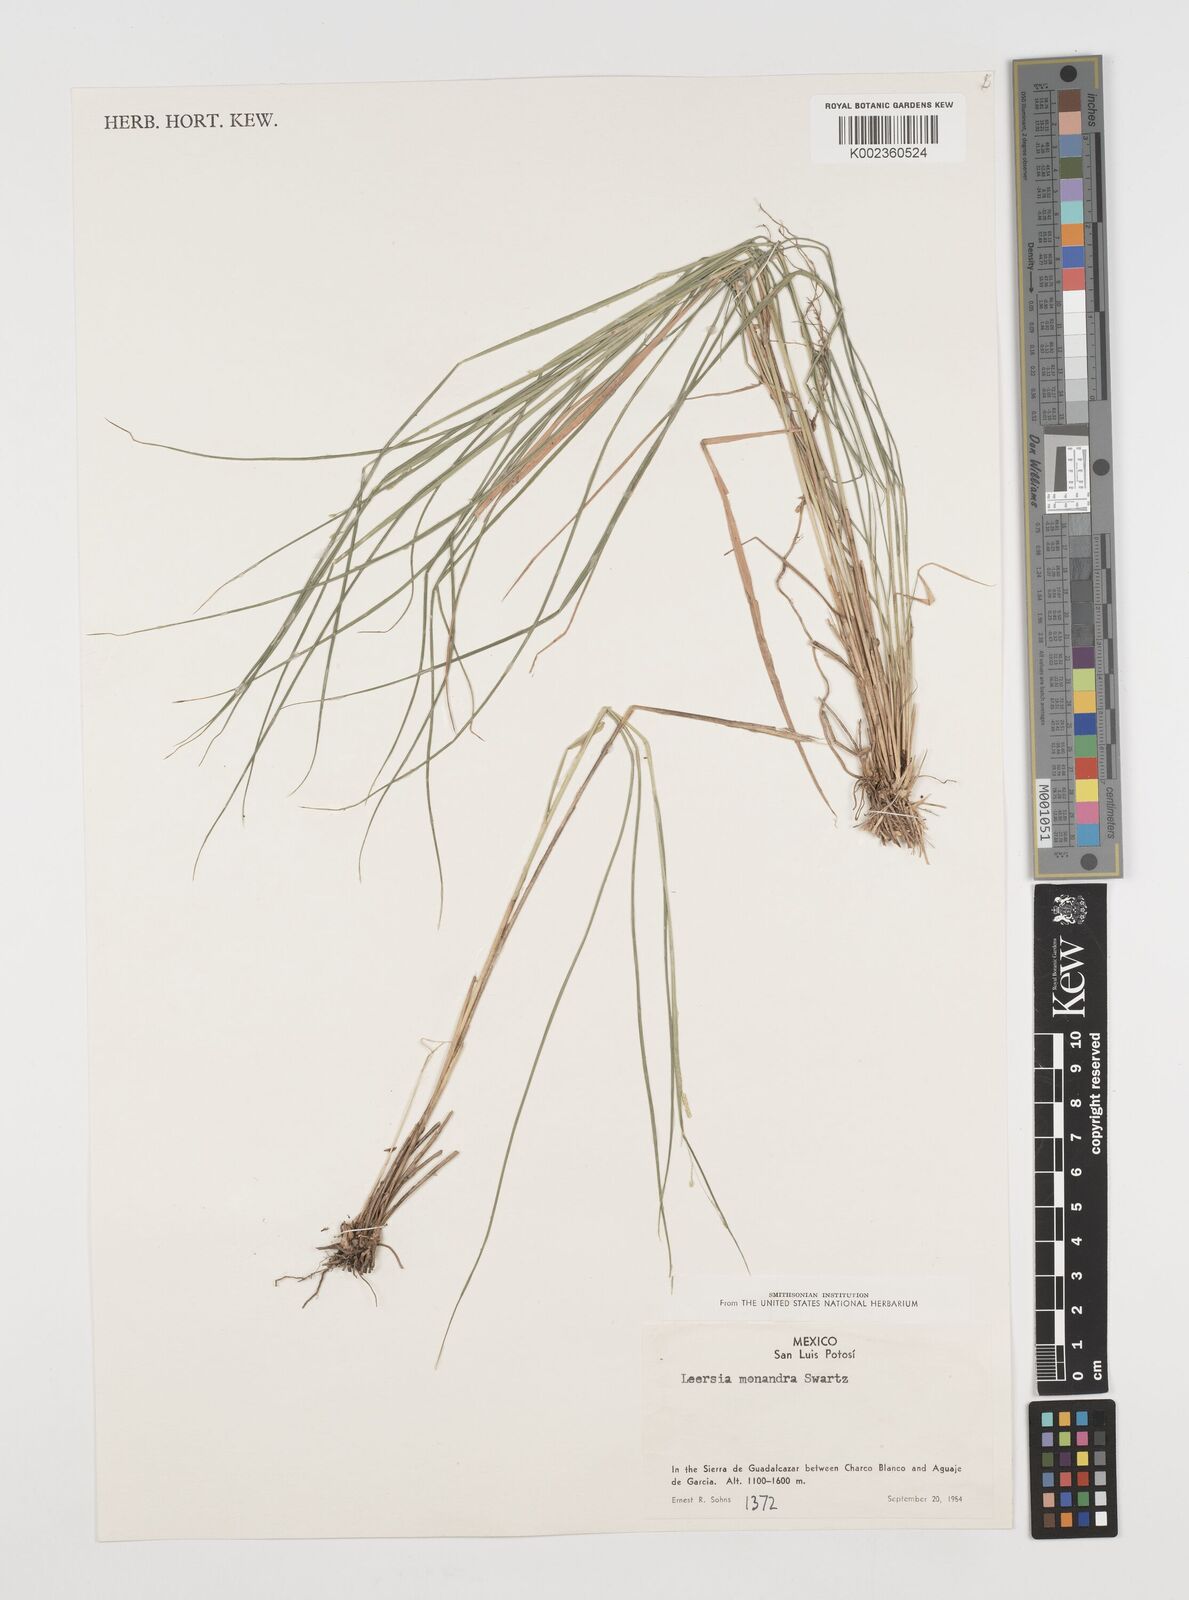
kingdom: Plantae
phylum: Tracheophyta
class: Liliopsida
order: Poales
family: Poaceae
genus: Leersia
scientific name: Leersia monandra
